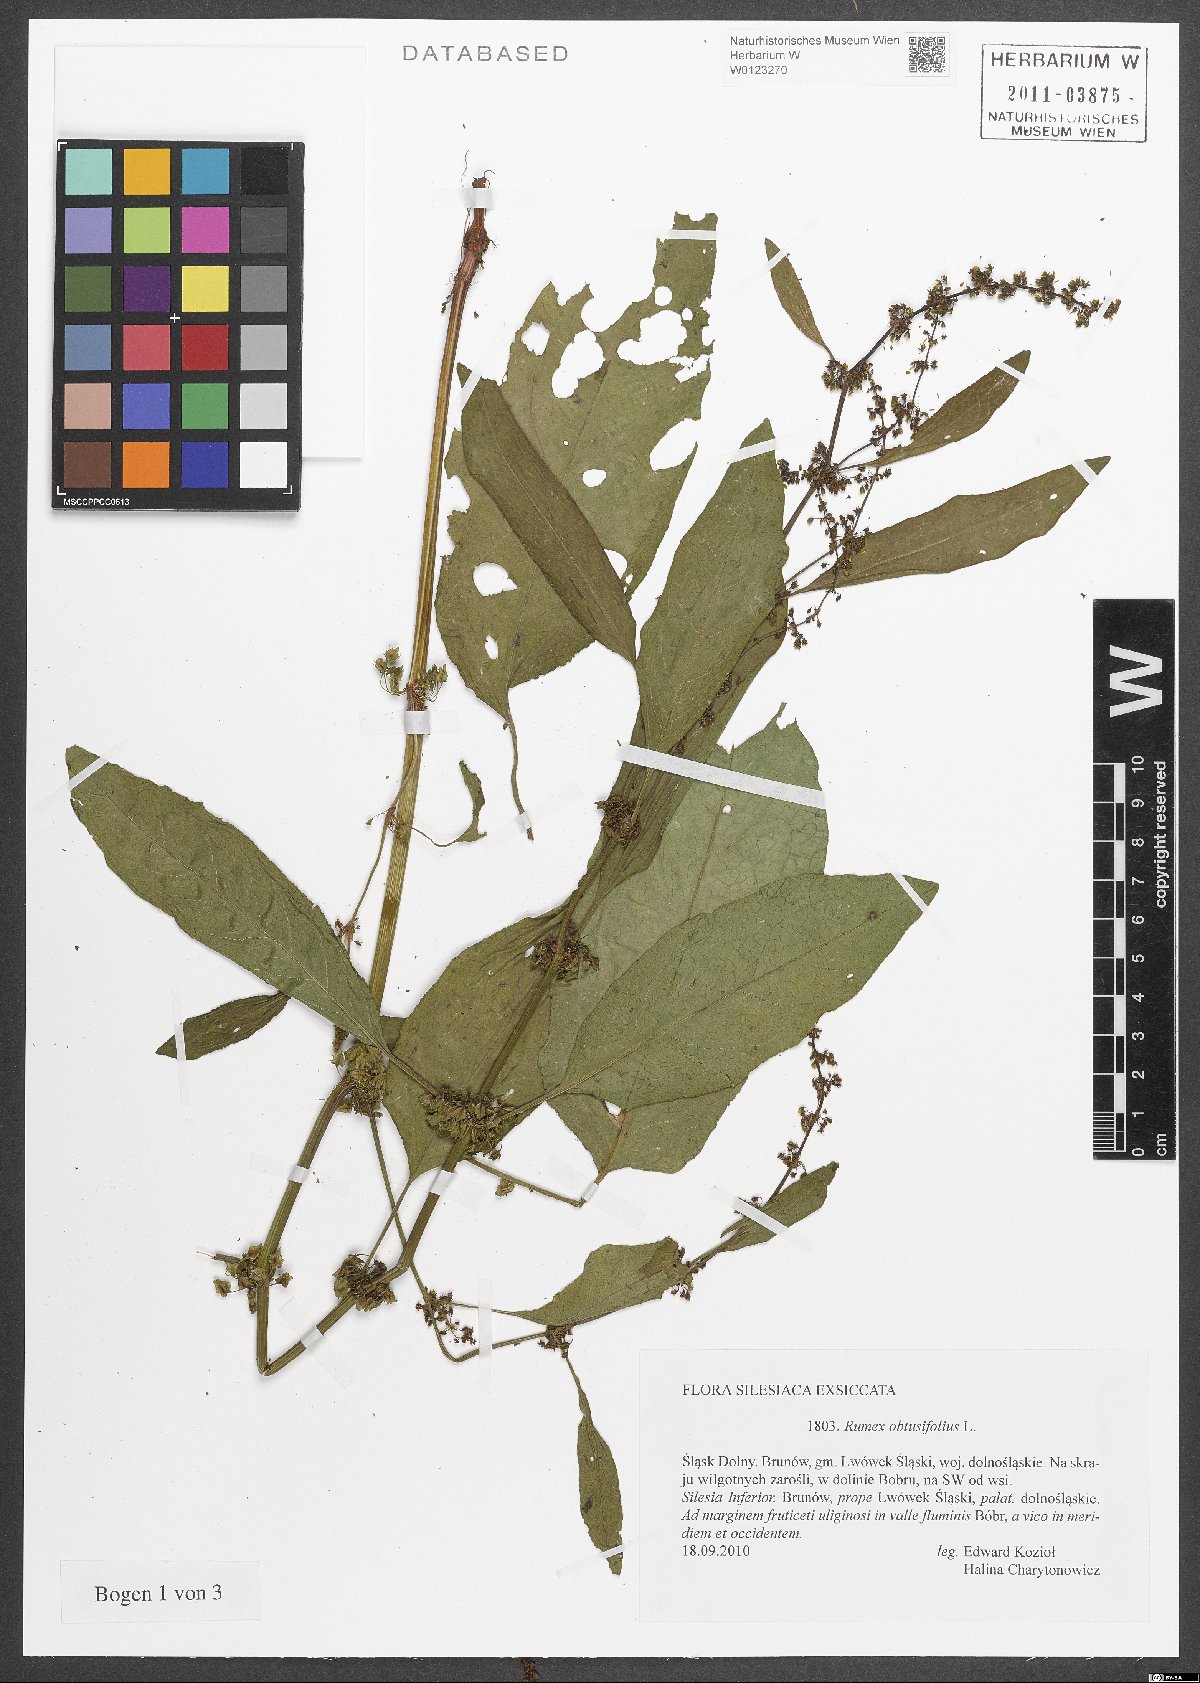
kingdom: Plantae
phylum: Tracheophyta
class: Magnoliopsida
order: Caryophyllales
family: Polygonaceae
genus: Rumex
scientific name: Rumex obtusifolius
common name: Bitter dock
